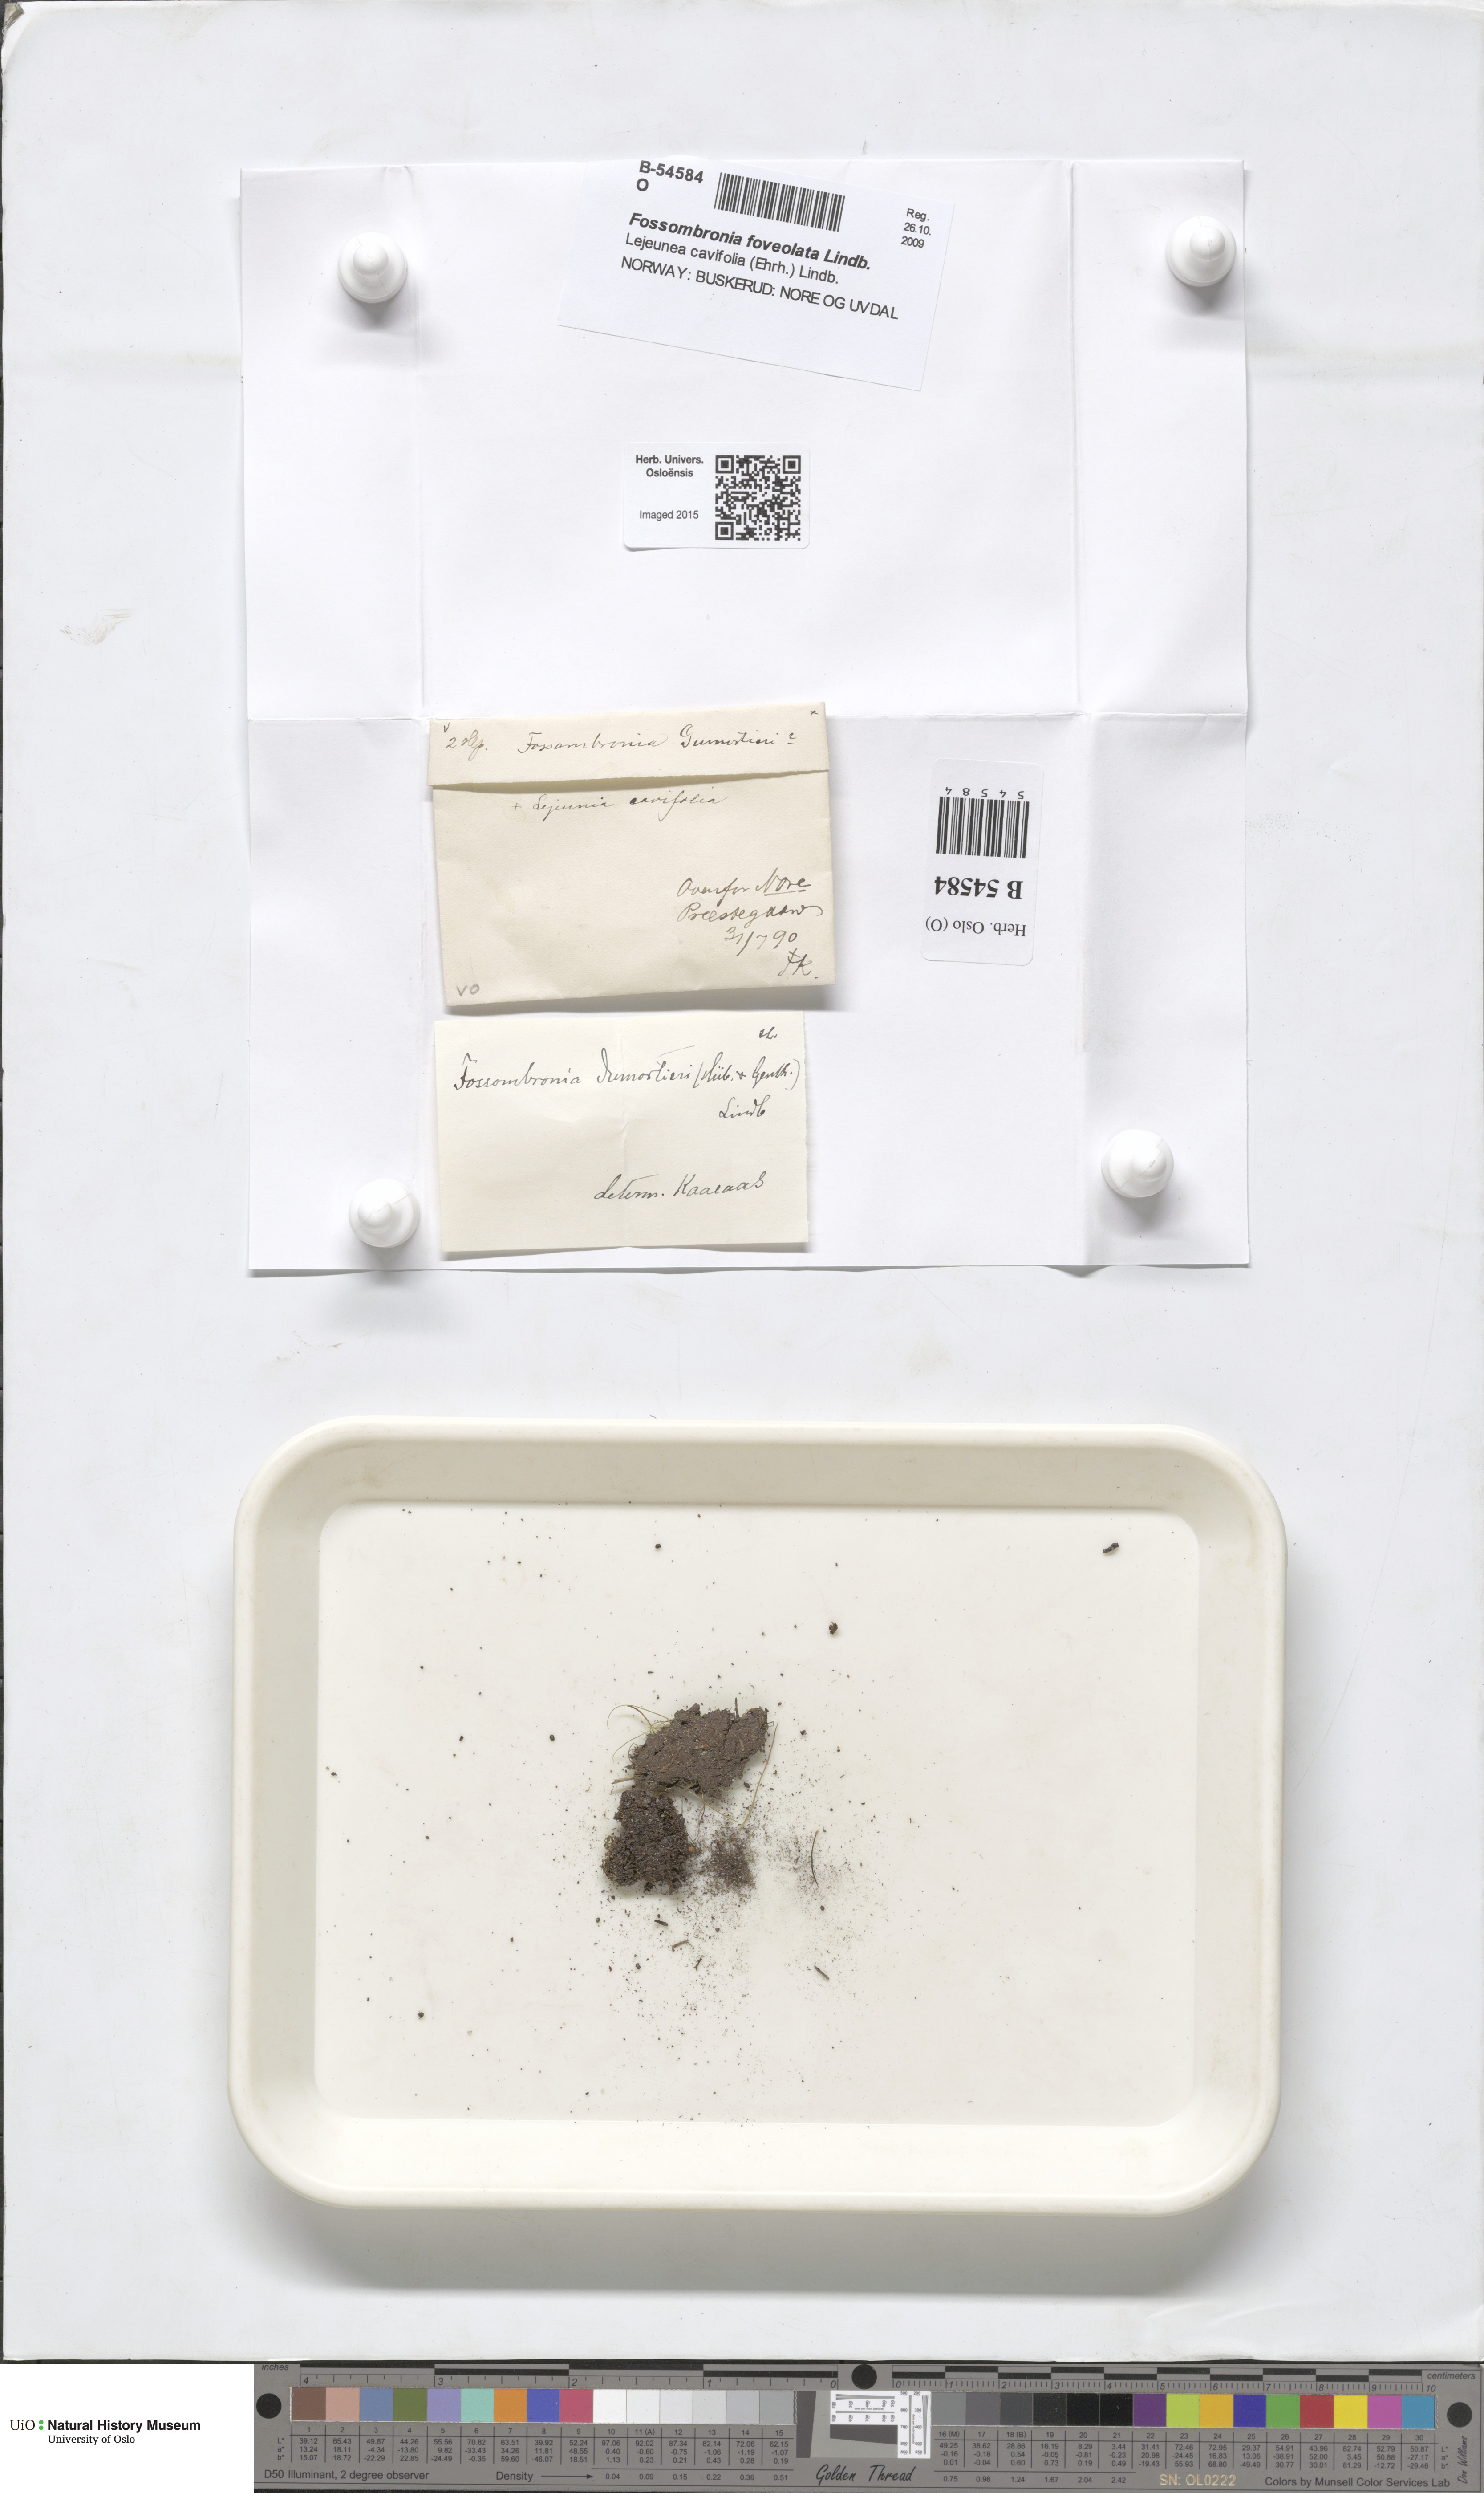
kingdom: Plantae
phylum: Marchantiophyta
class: Jungermanniopsida
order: Fossombroniales
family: Fossombroniaceae
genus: Fossombronia
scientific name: Fossombronia foveolata
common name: Pitted frillwort
